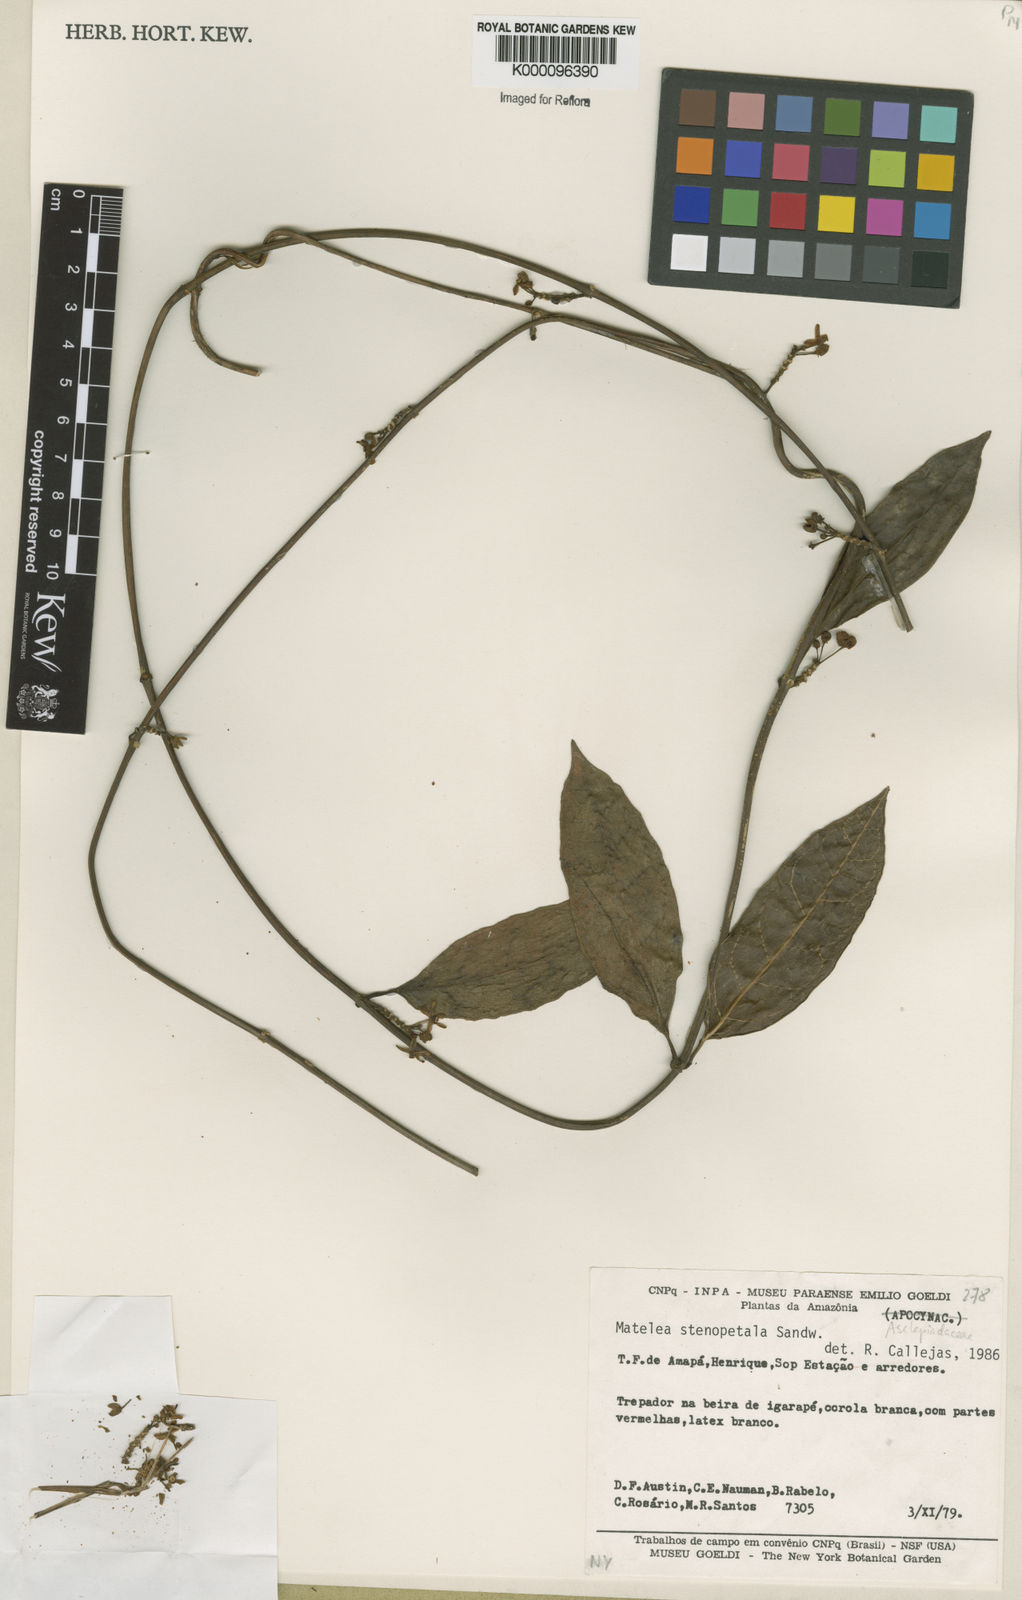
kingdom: Plantae
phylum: Tracheophyta
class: Magnoliopsida
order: Gentianales
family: Apocynaceae
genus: Matelea
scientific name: Matelea stenopetala
